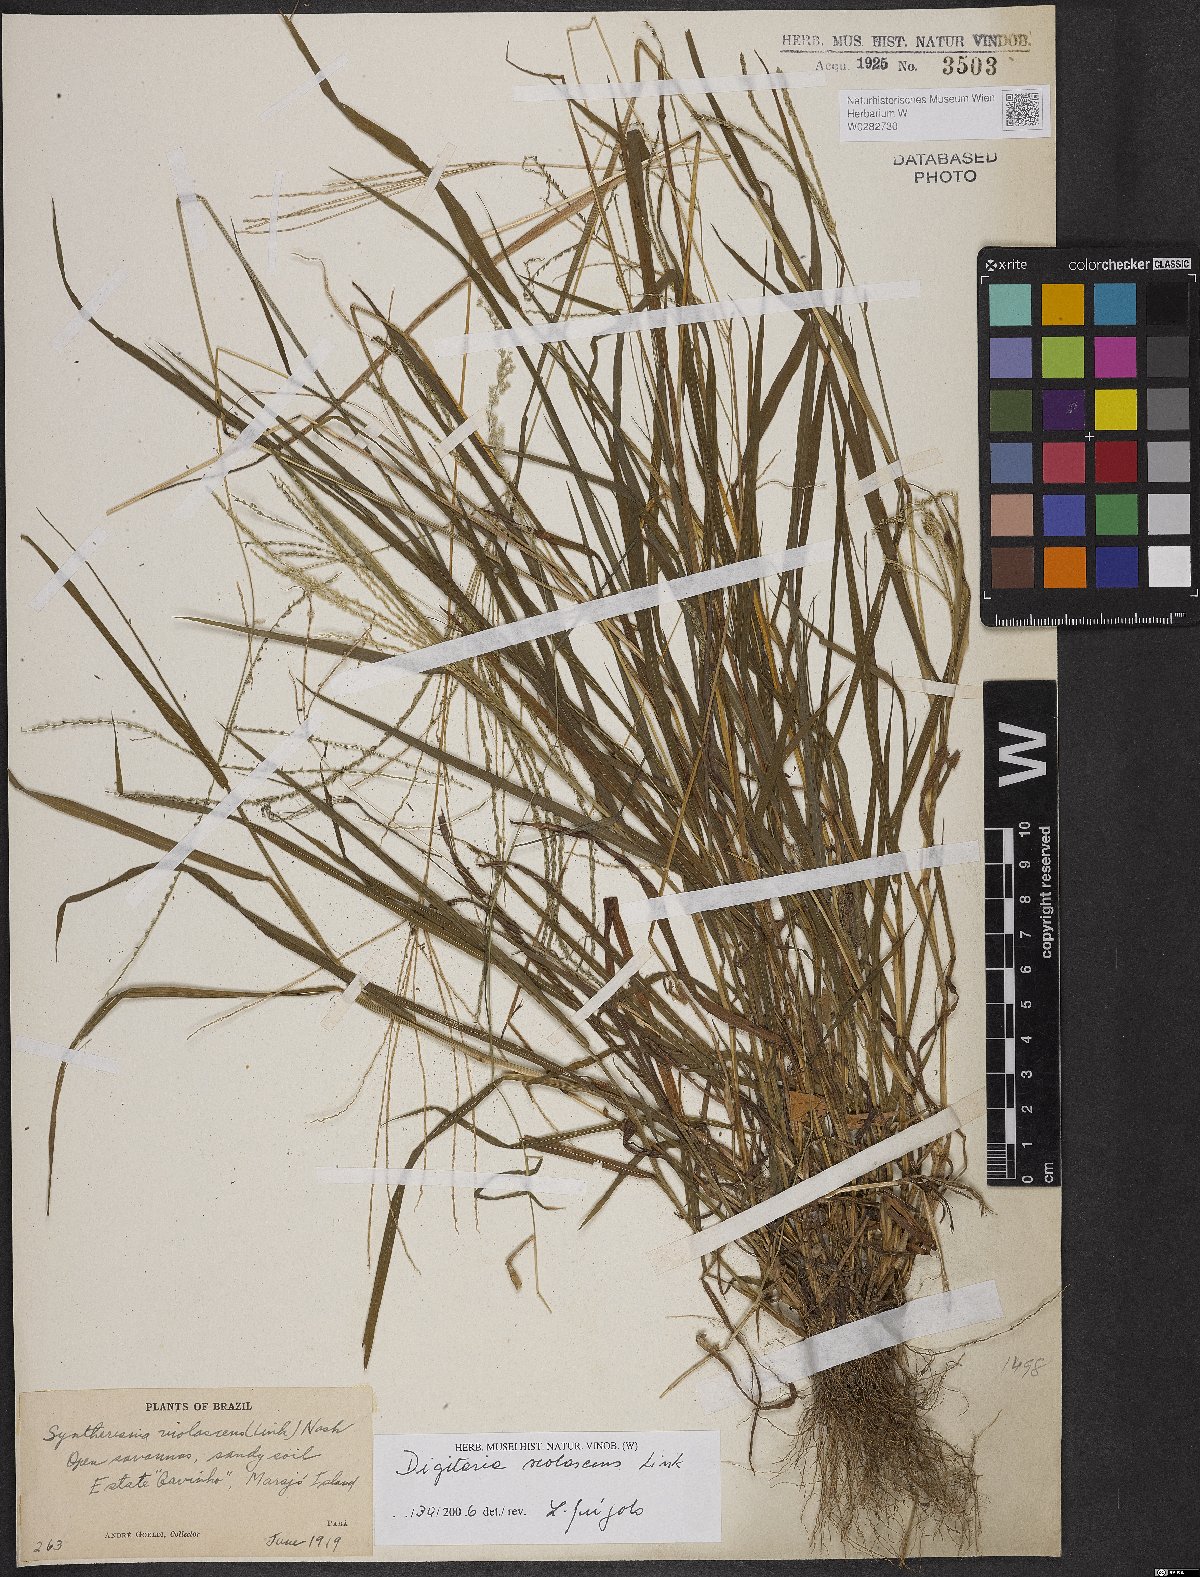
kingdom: Plantae
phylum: Tracheophyta
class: Liliopsida
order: Poales
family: Poaceae
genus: Digitaria
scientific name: Digitaria violascens
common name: Violet crabgrass
